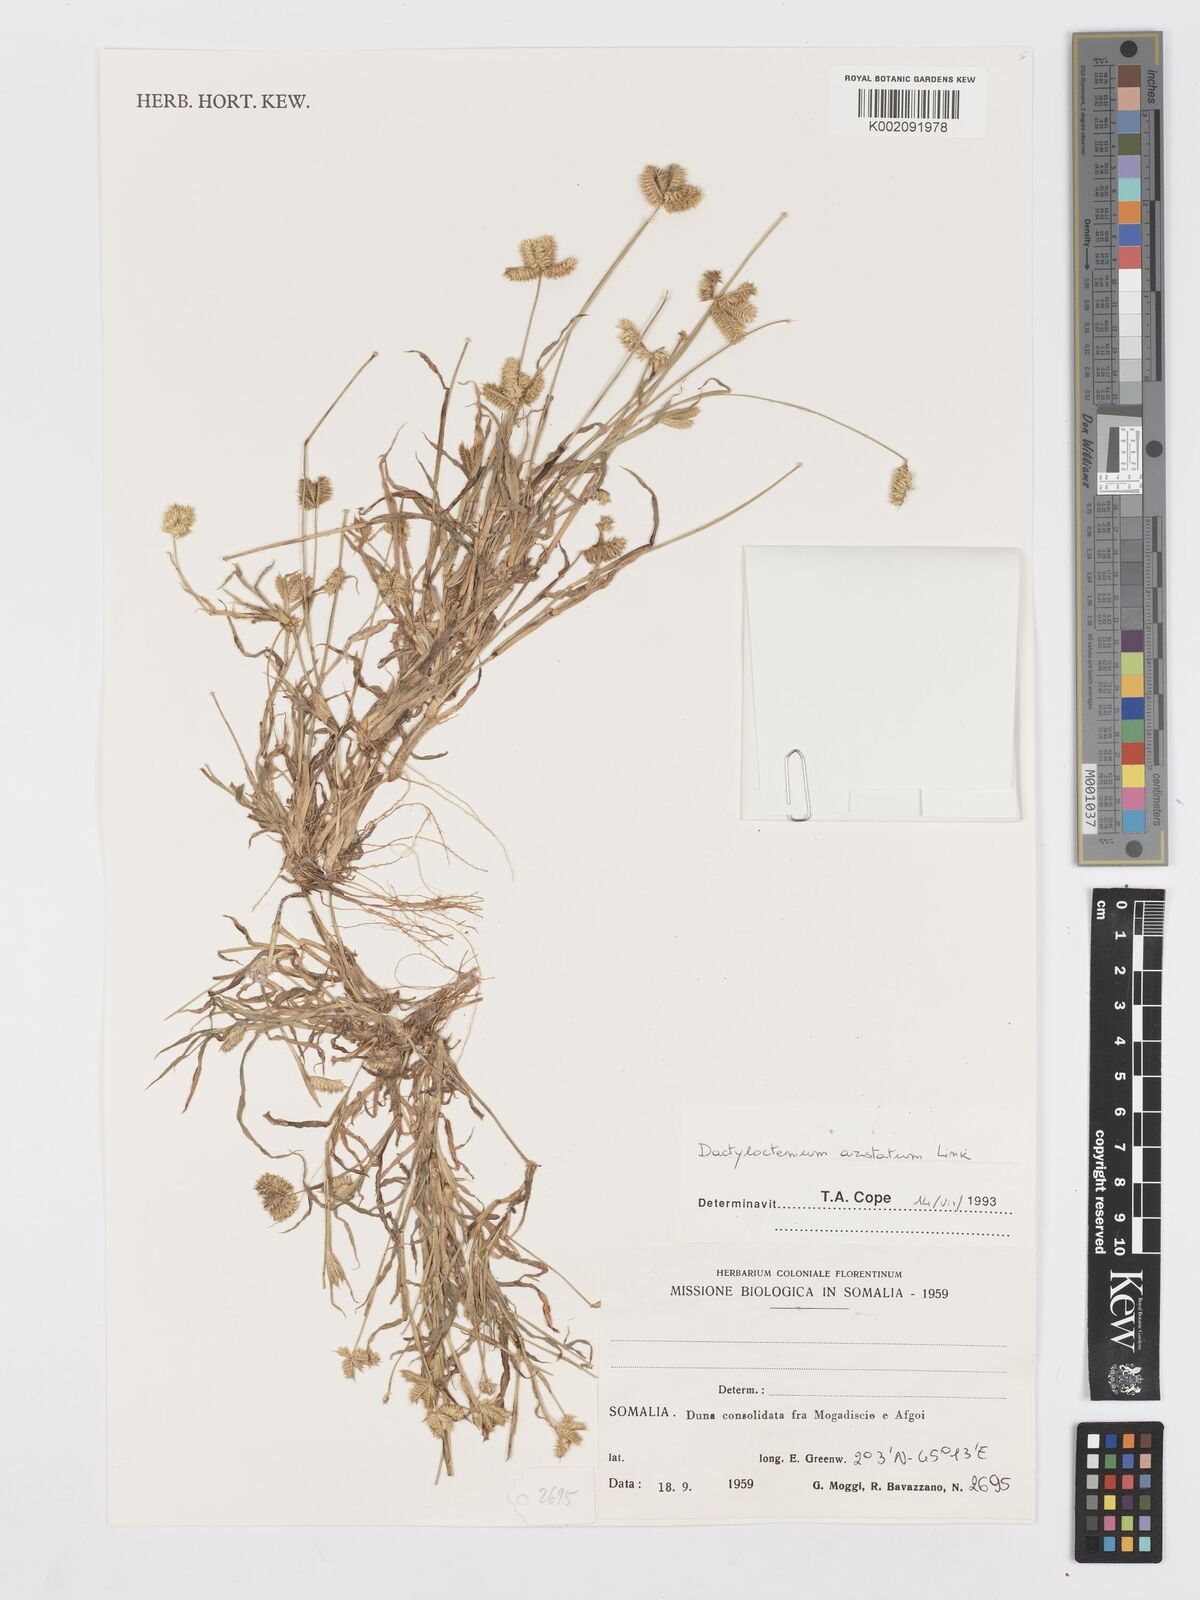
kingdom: Plantae
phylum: Tracheophyta
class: Liliopsida
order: Poales
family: Poaceae
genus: Dactyloctenium
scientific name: Dactyloctenium aristatum
